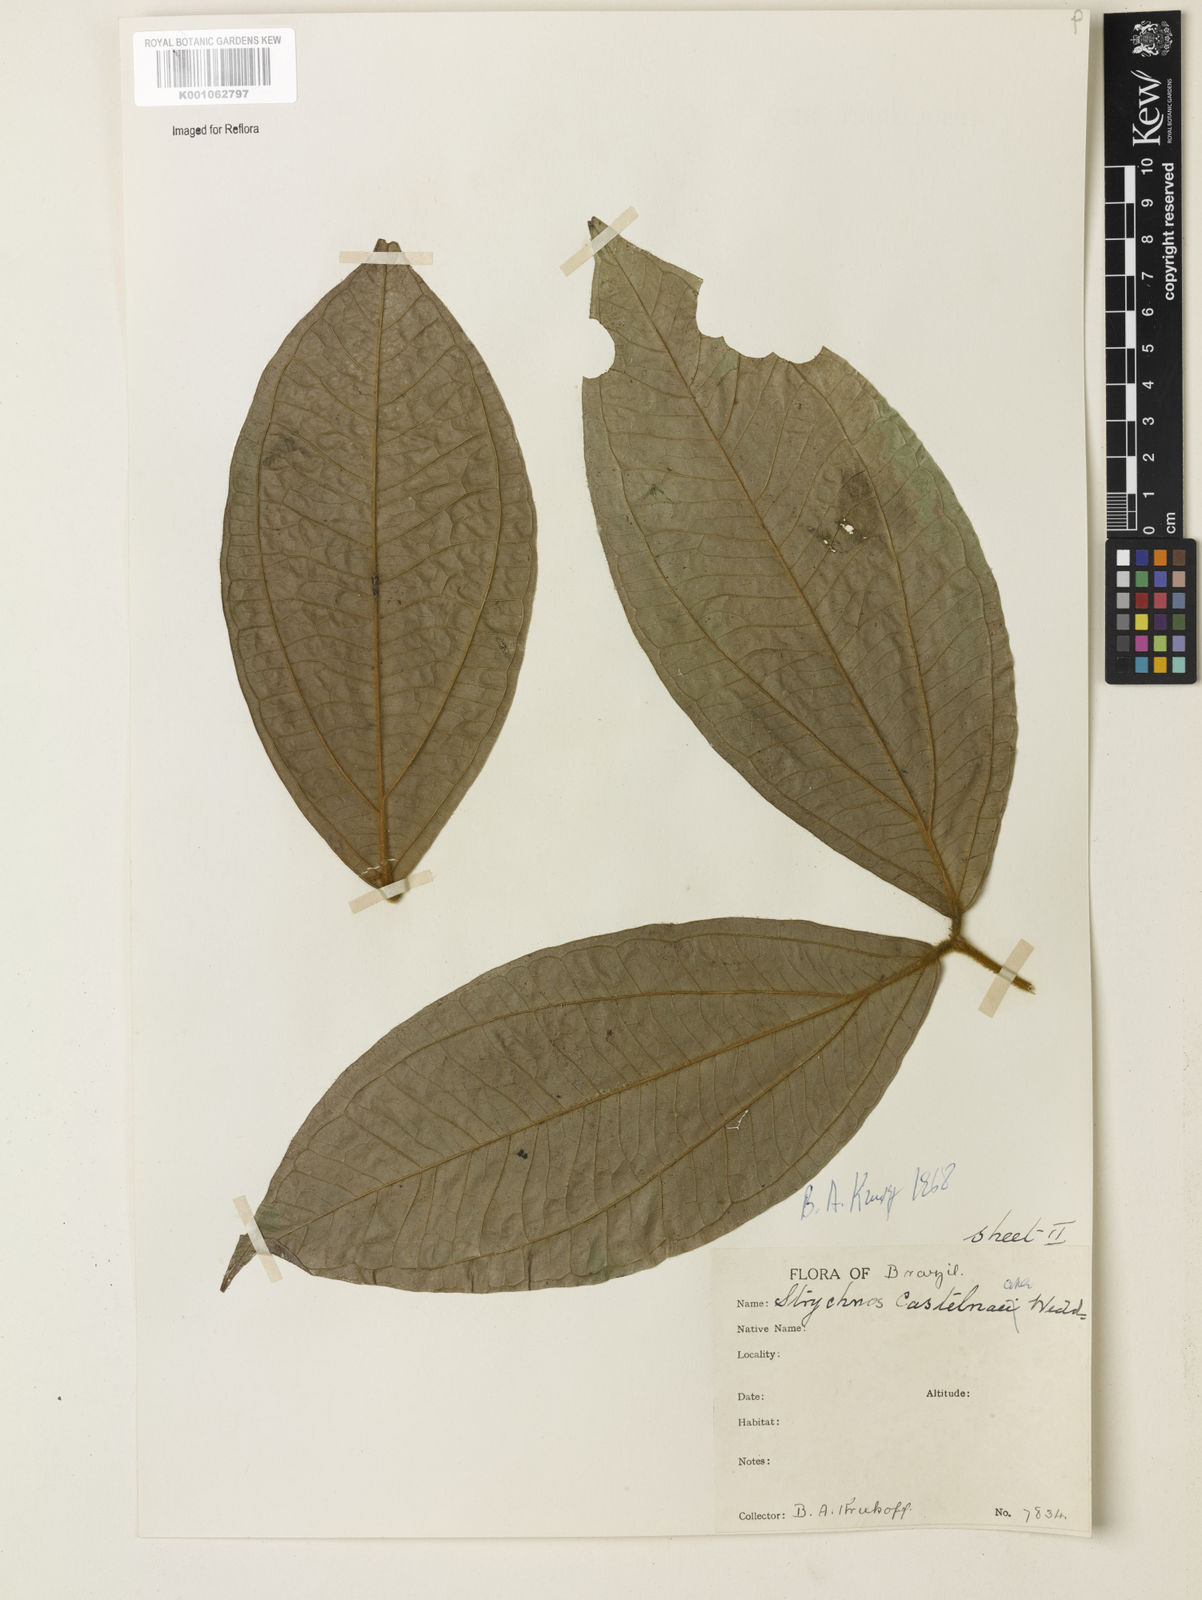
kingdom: Plantae
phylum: Tracheophyta
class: Magnoliopsida
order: Gentianales
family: Loganiaceae
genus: Strychnos
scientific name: Strychnos
